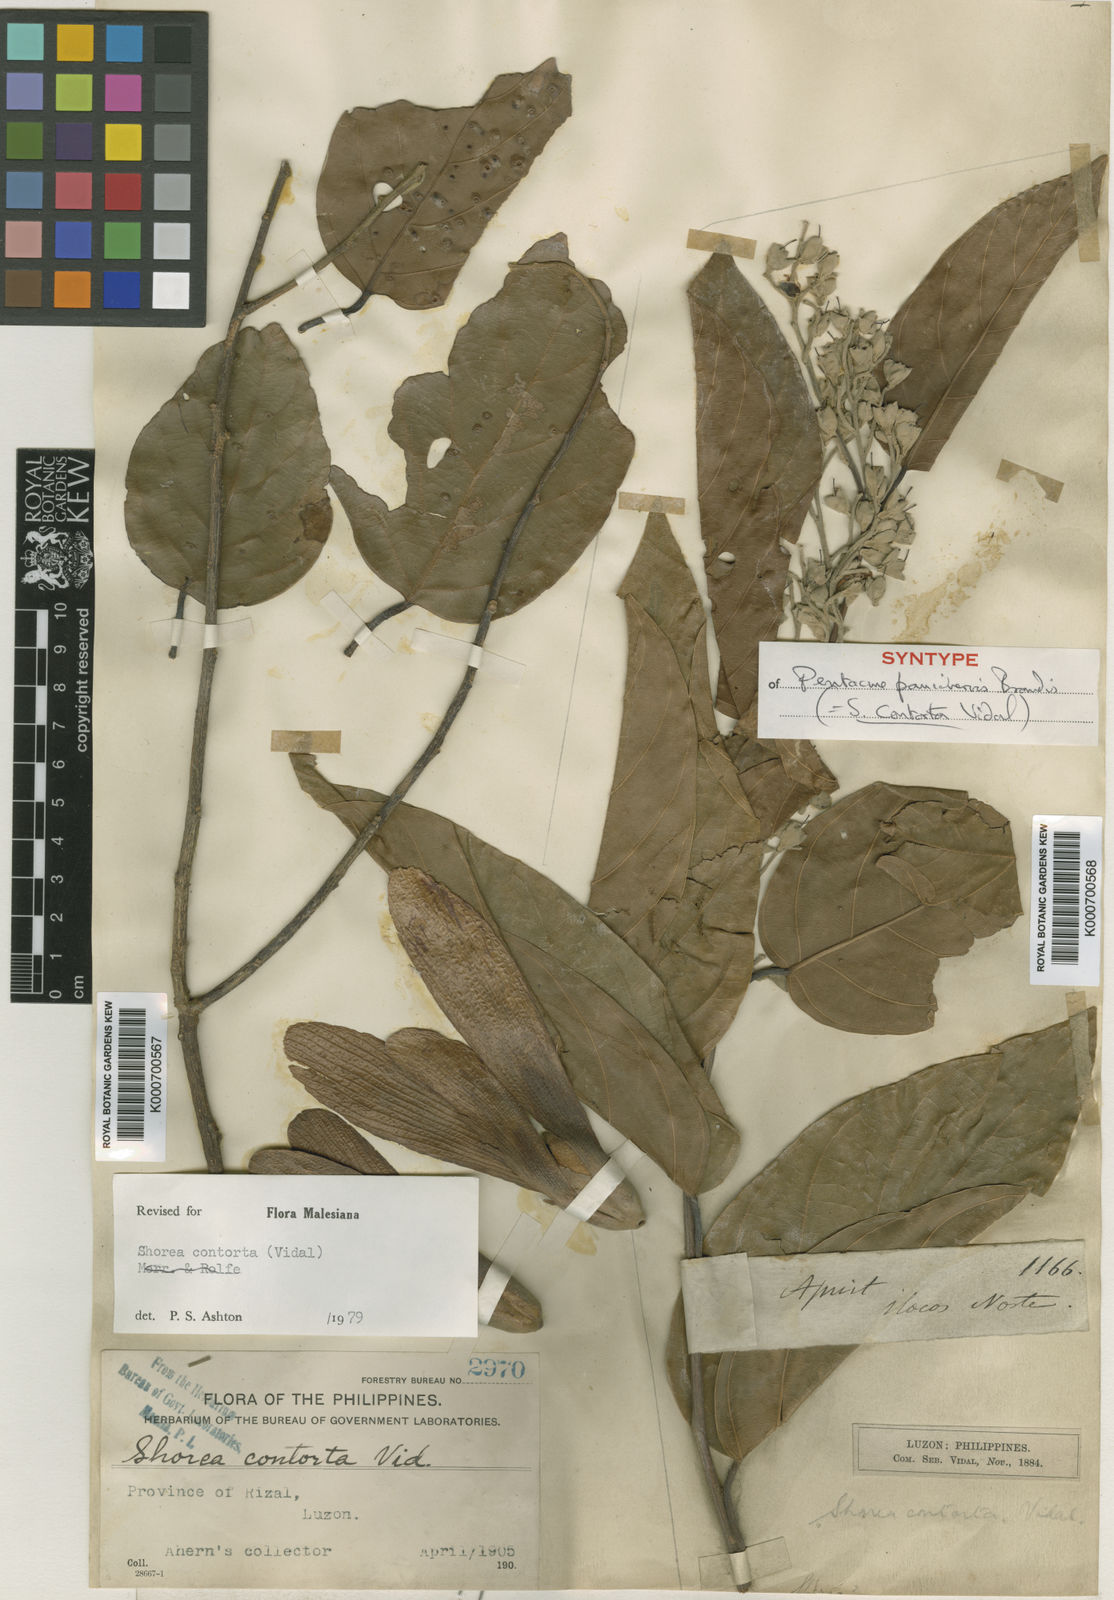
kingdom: Plantae
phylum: Tracheophyta
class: Magnoliopsida
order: Malvales
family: Dipterocarpaceae
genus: Pentacme
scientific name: Pentacme contorta
